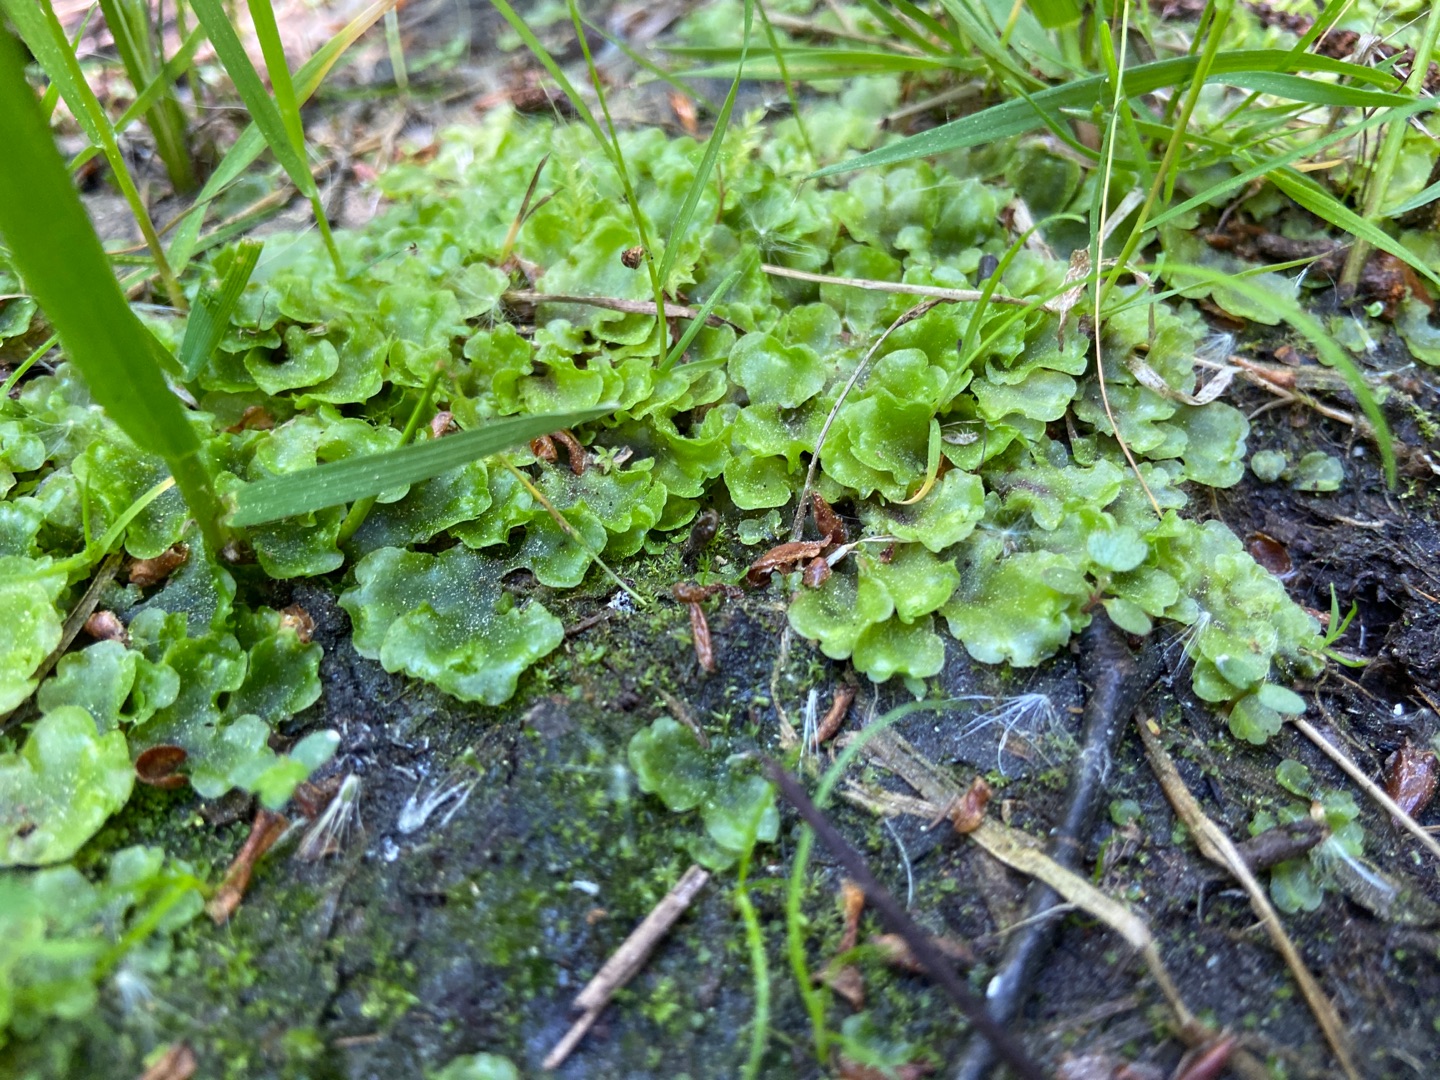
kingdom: Plantae
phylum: Marchantiophyta
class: Jungermanniopsida
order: Pelliales
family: Pelliaceae
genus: Pellia
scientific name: Pellia epiphylla
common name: Enbo ribbeløv
